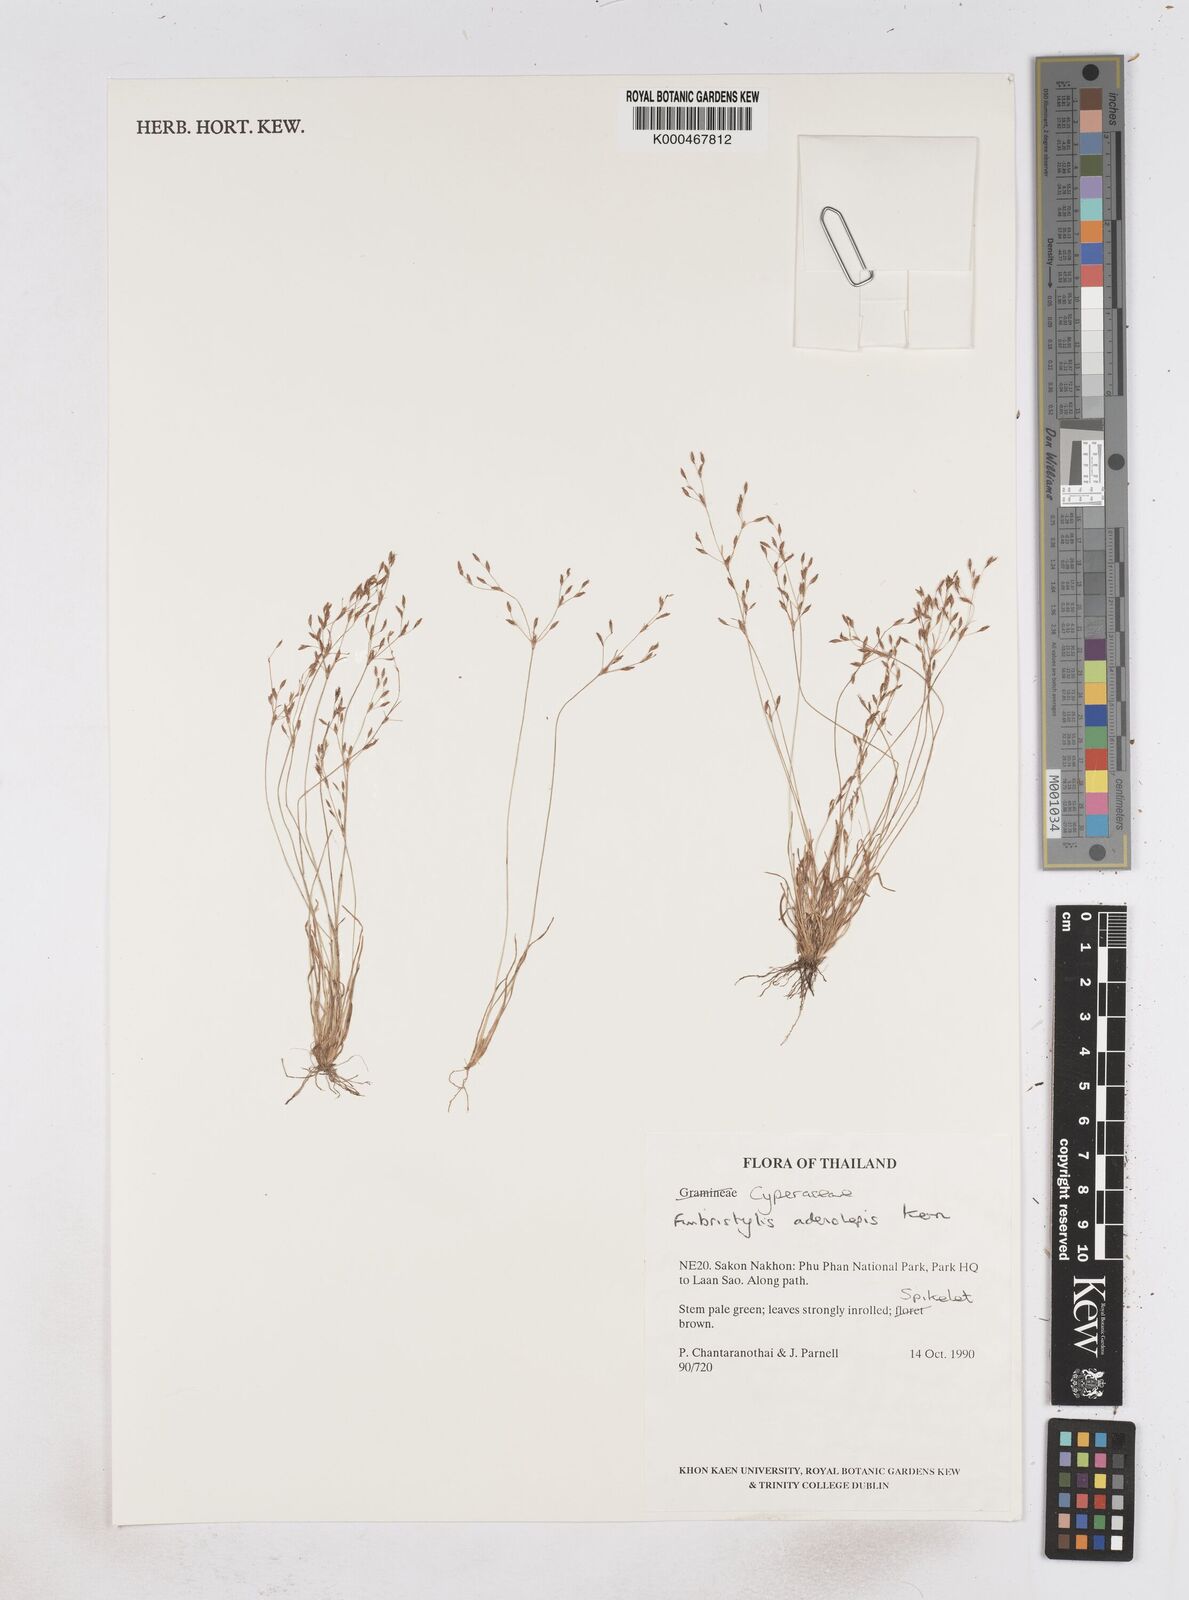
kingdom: Plantae
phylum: Tracheophyta
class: Liliopsida
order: Poales
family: Cyperaceae
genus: Fimbristylis
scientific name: Fimbristylis adenolepis
